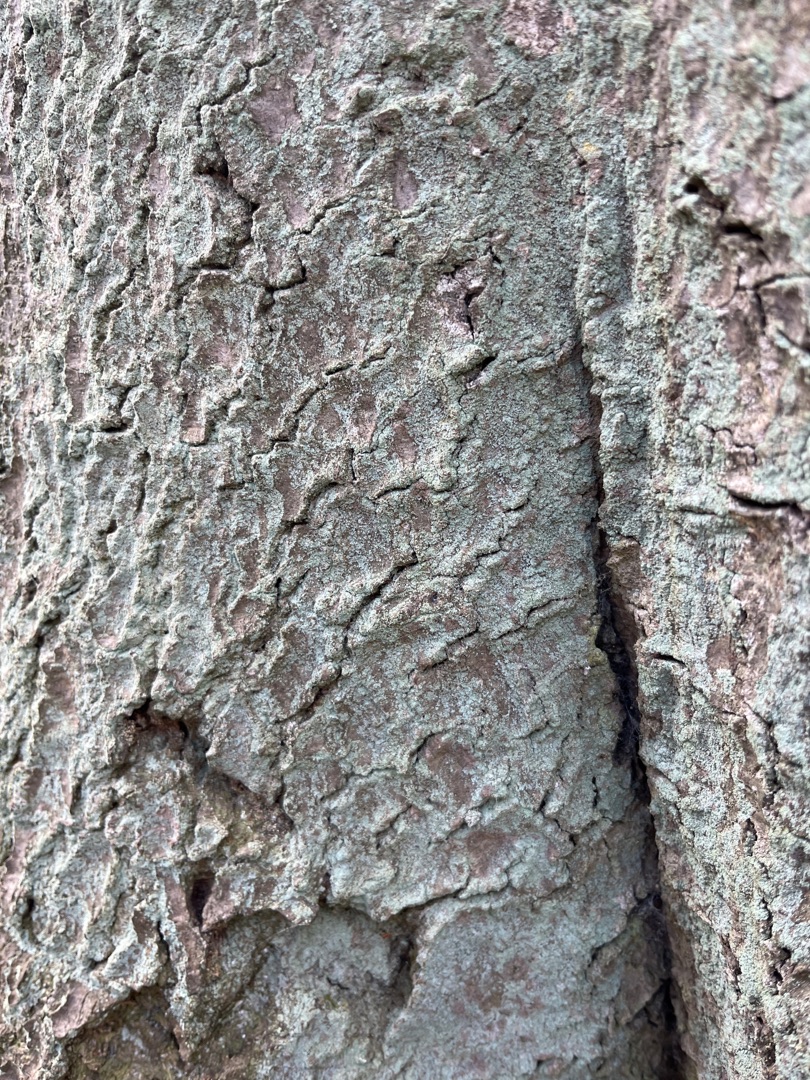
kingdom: Fungi
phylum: Ascomycota
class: Lecanoromycetes
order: Lecanorales
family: Stereocaulaceae
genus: Lepraria
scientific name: Lepraria
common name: Støvlav
